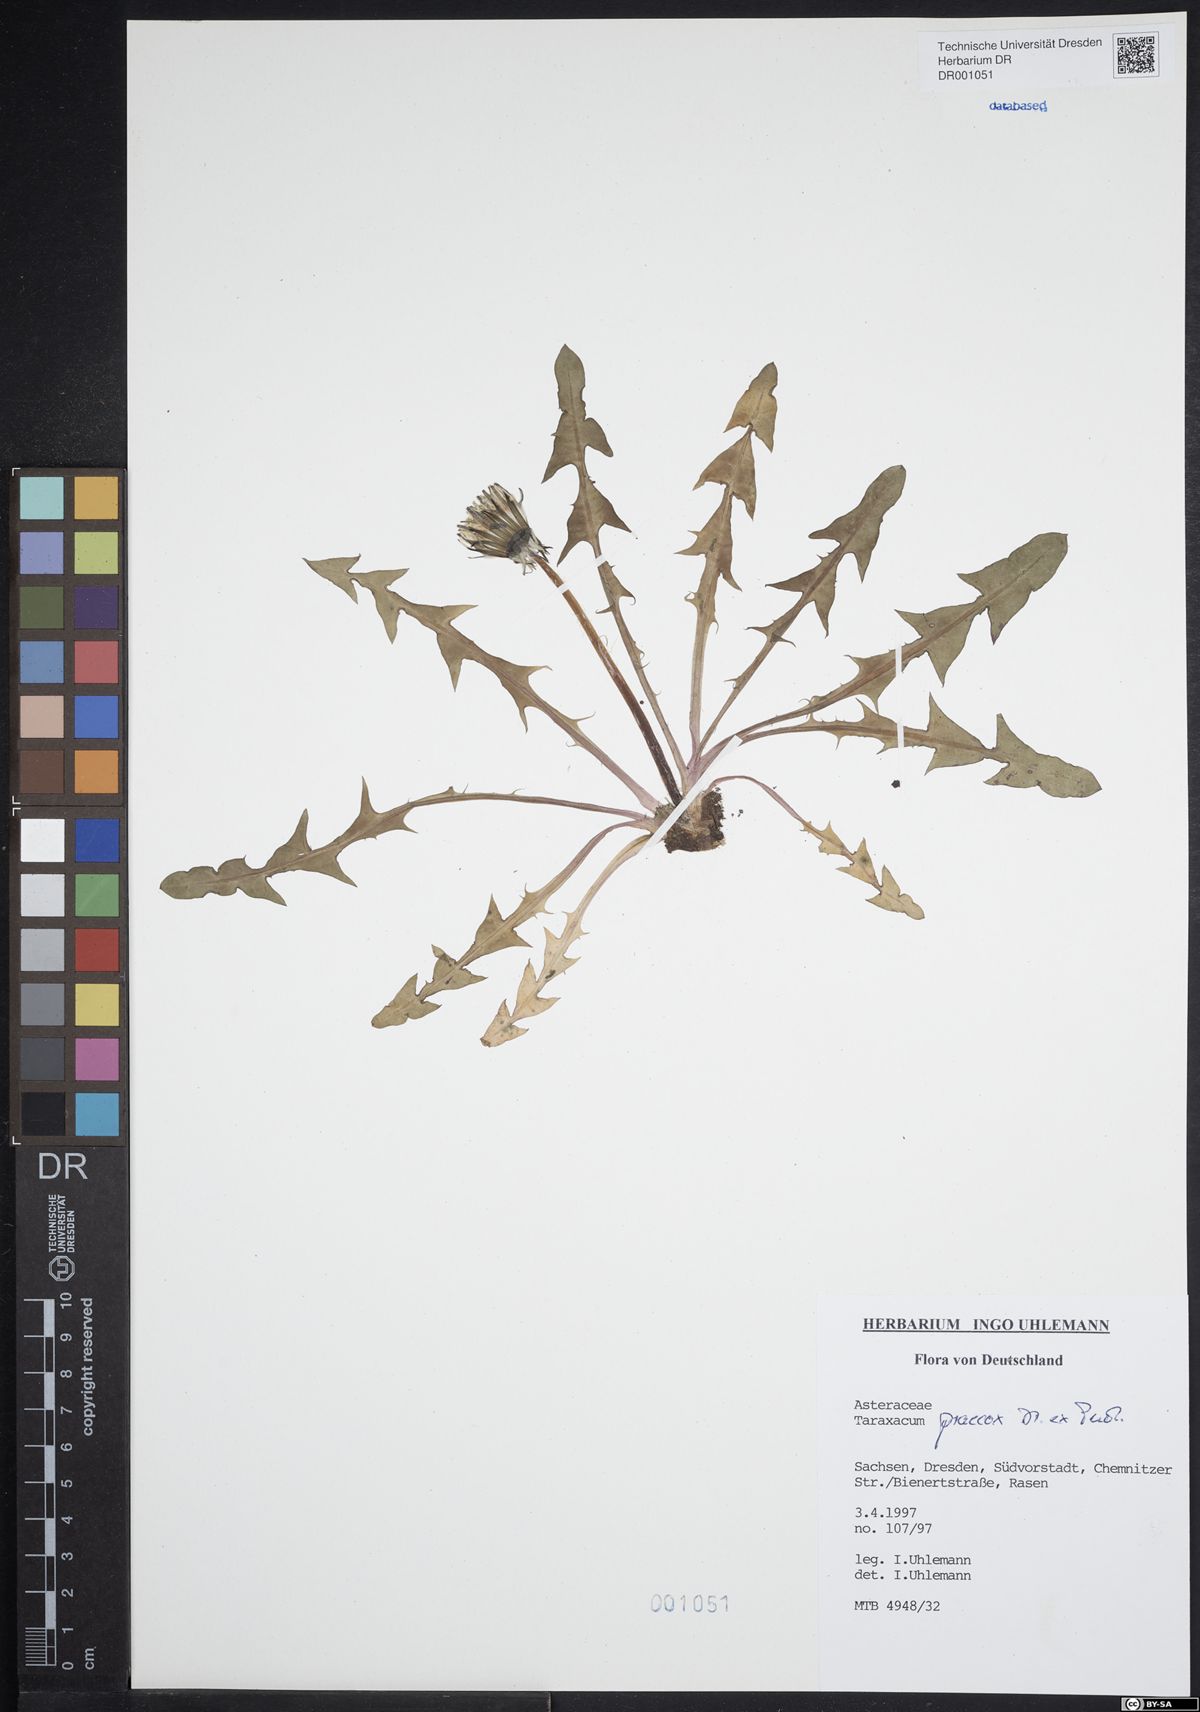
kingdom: Plantae
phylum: Tracheophyta
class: Magnoliopsida
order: Asterales
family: Asteraceae
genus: Taraxacum
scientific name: Taraxacum praecox
